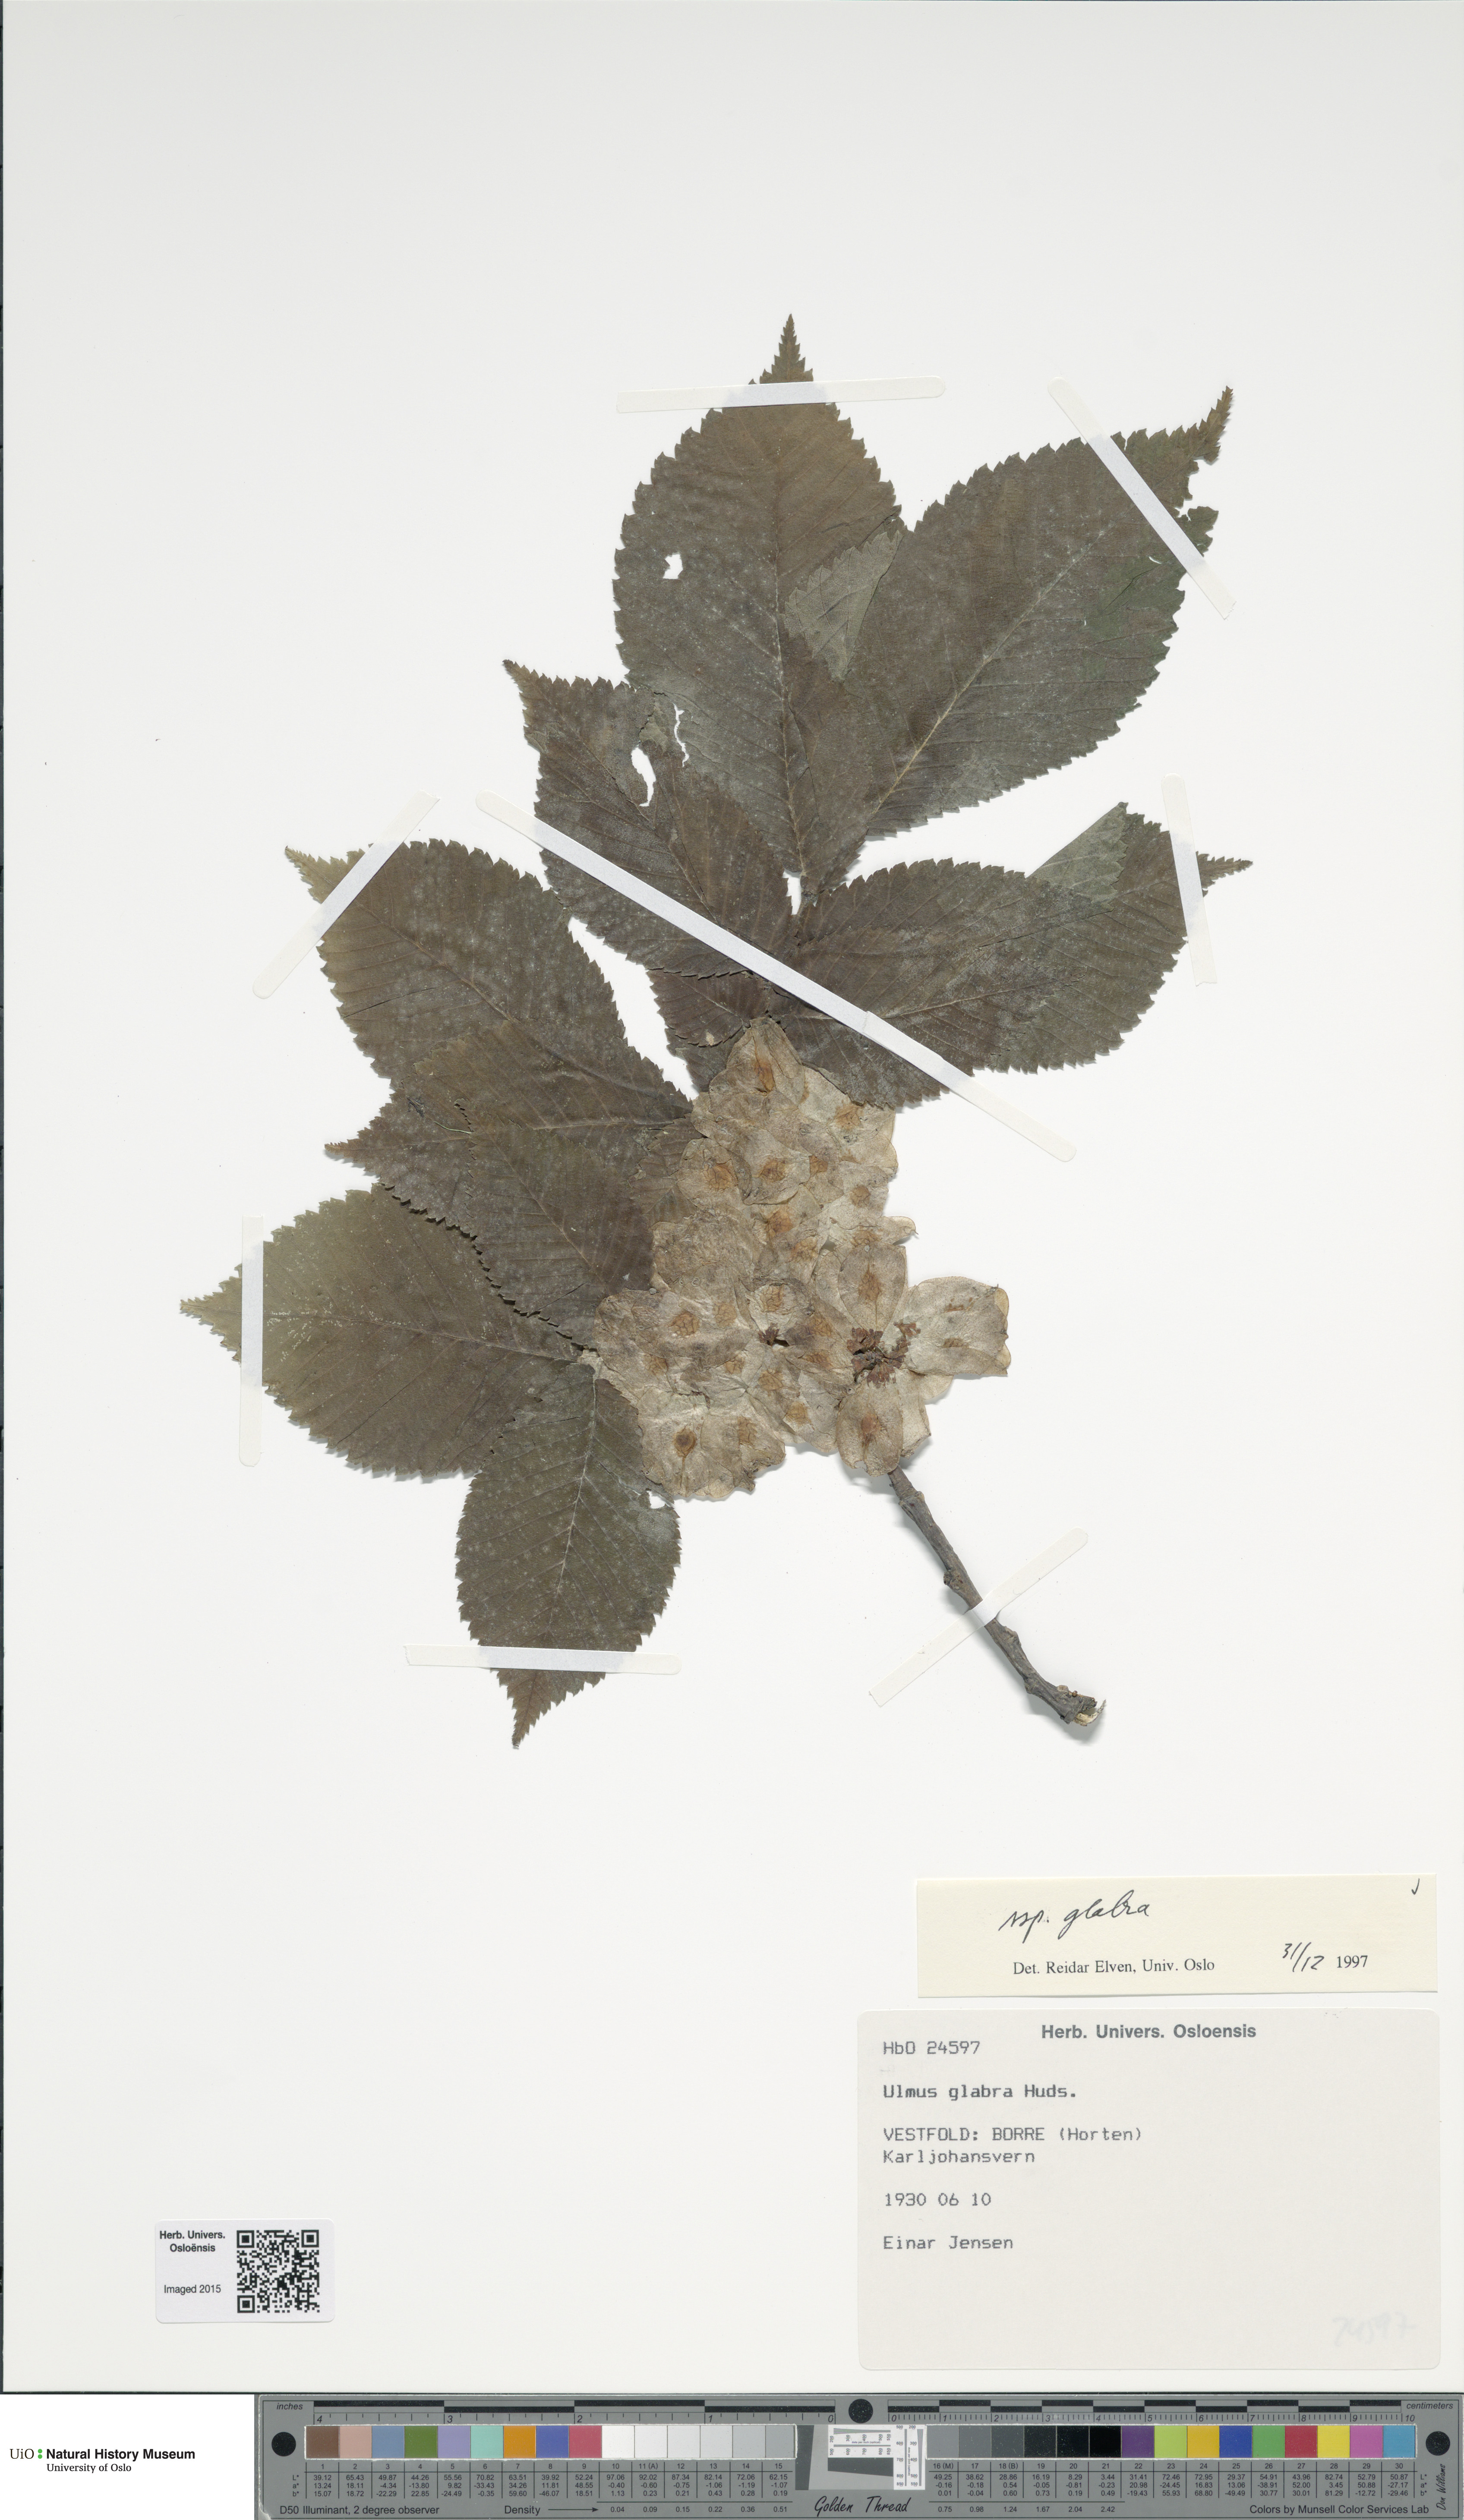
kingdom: Plantae
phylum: Tracheophyta
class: Magnoliopsida
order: Rosales
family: Ulmaceae
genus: Ulmus
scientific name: Ulmus glabra
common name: Wych elm
